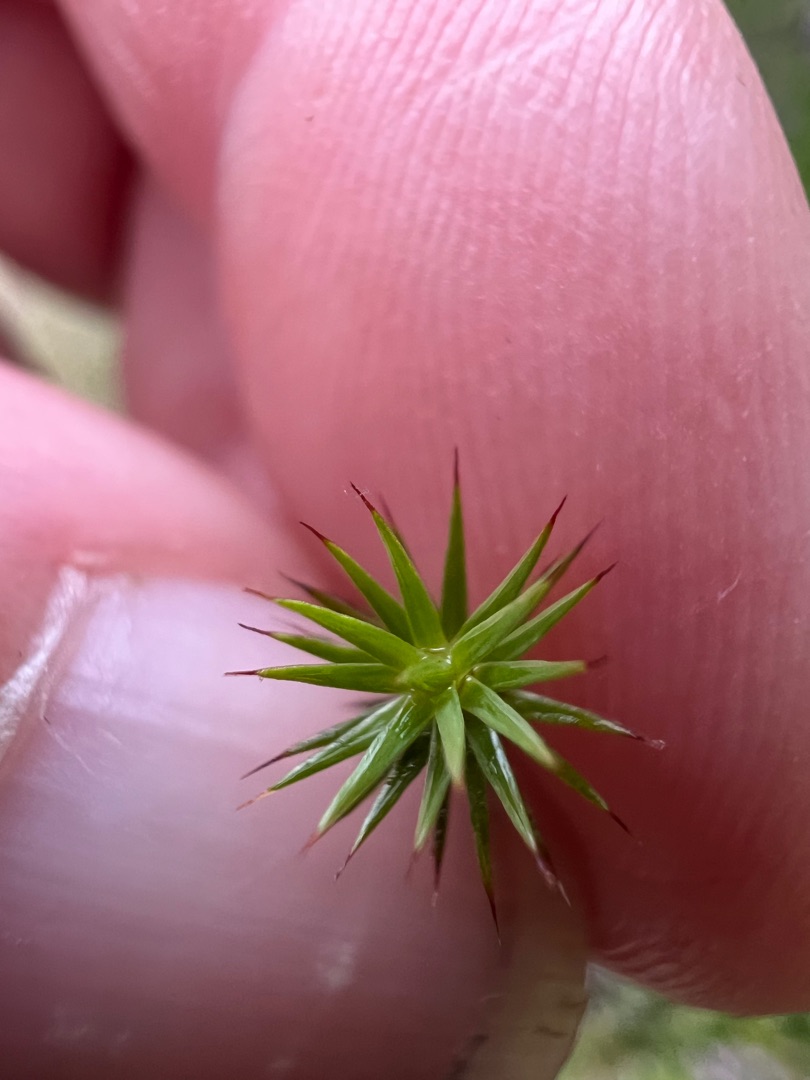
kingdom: Plantae
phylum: Bryophyta
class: Polytrichopsida
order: Polytrichales
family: Polytrichaceae
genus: Polytrichum
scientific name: Polytrichum juniperinum
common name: Ene-jomfruhår
